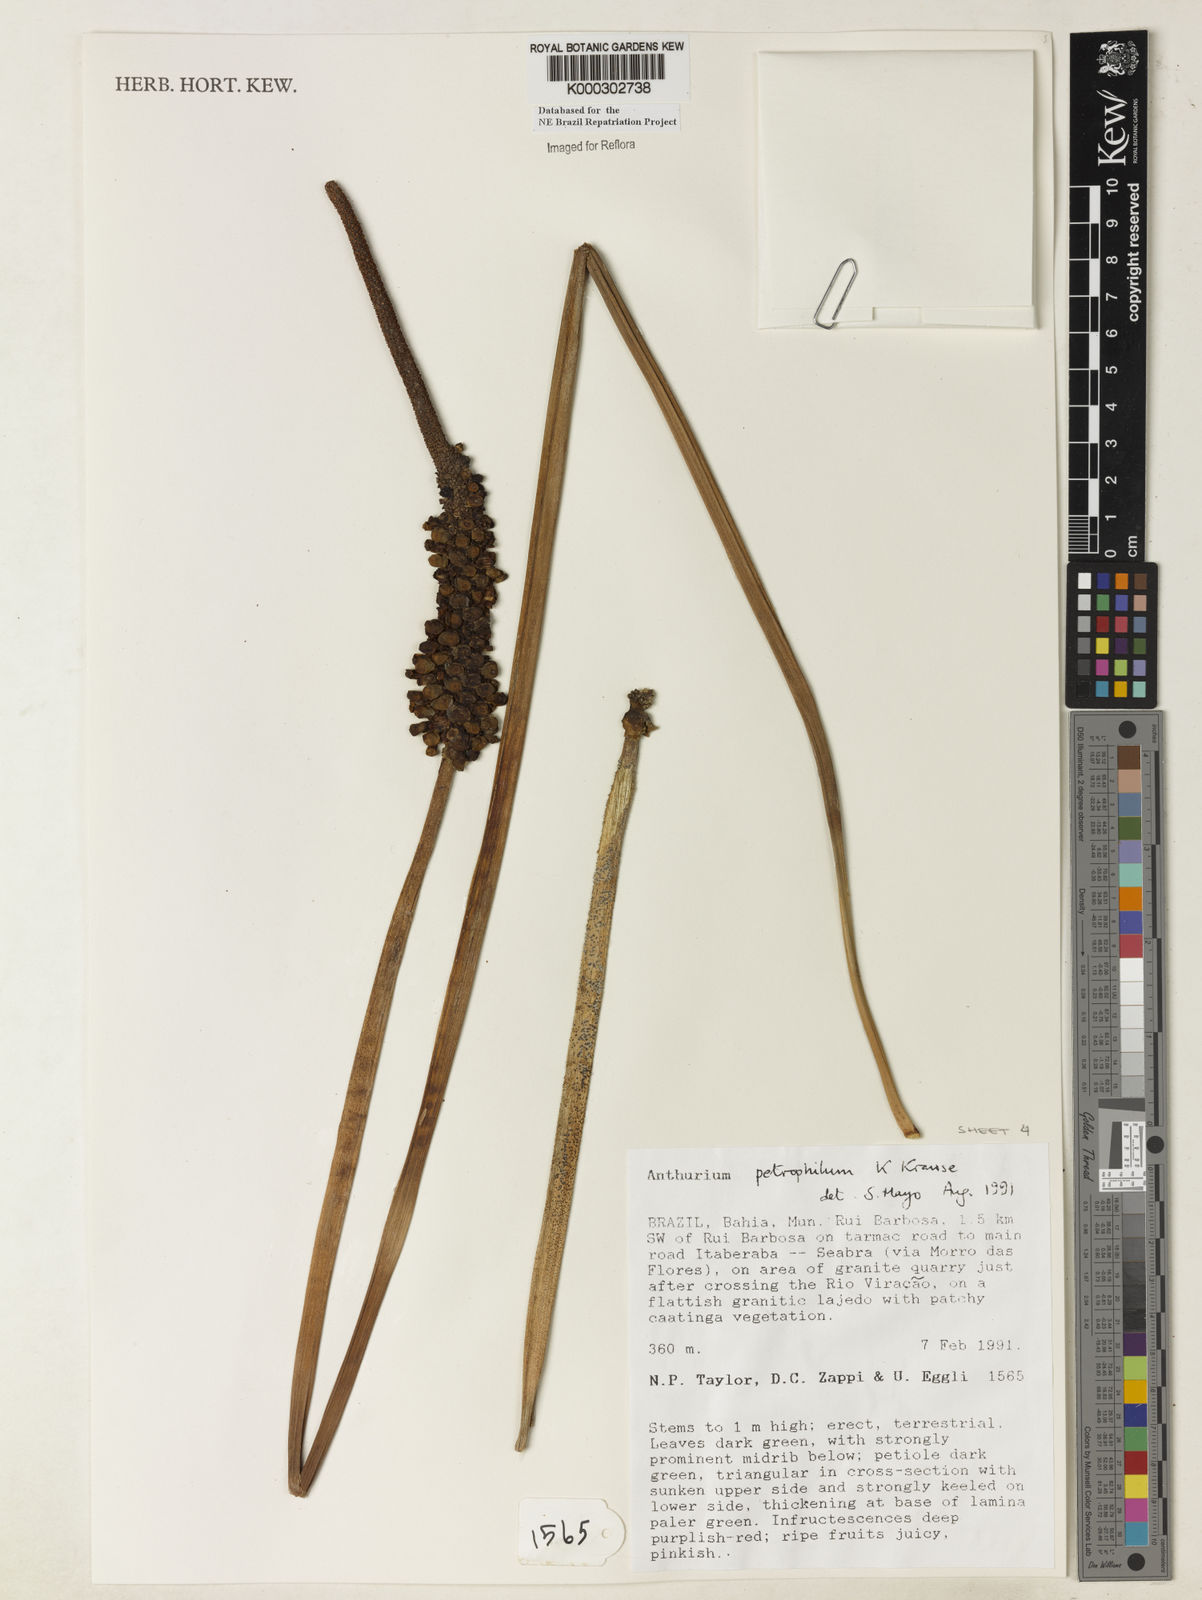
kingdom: Plantae
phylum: Tracheophyta
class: Liliopsida
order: Alismatales
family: Araceae
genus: Anthurium
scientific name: Anthurium petrophilum
